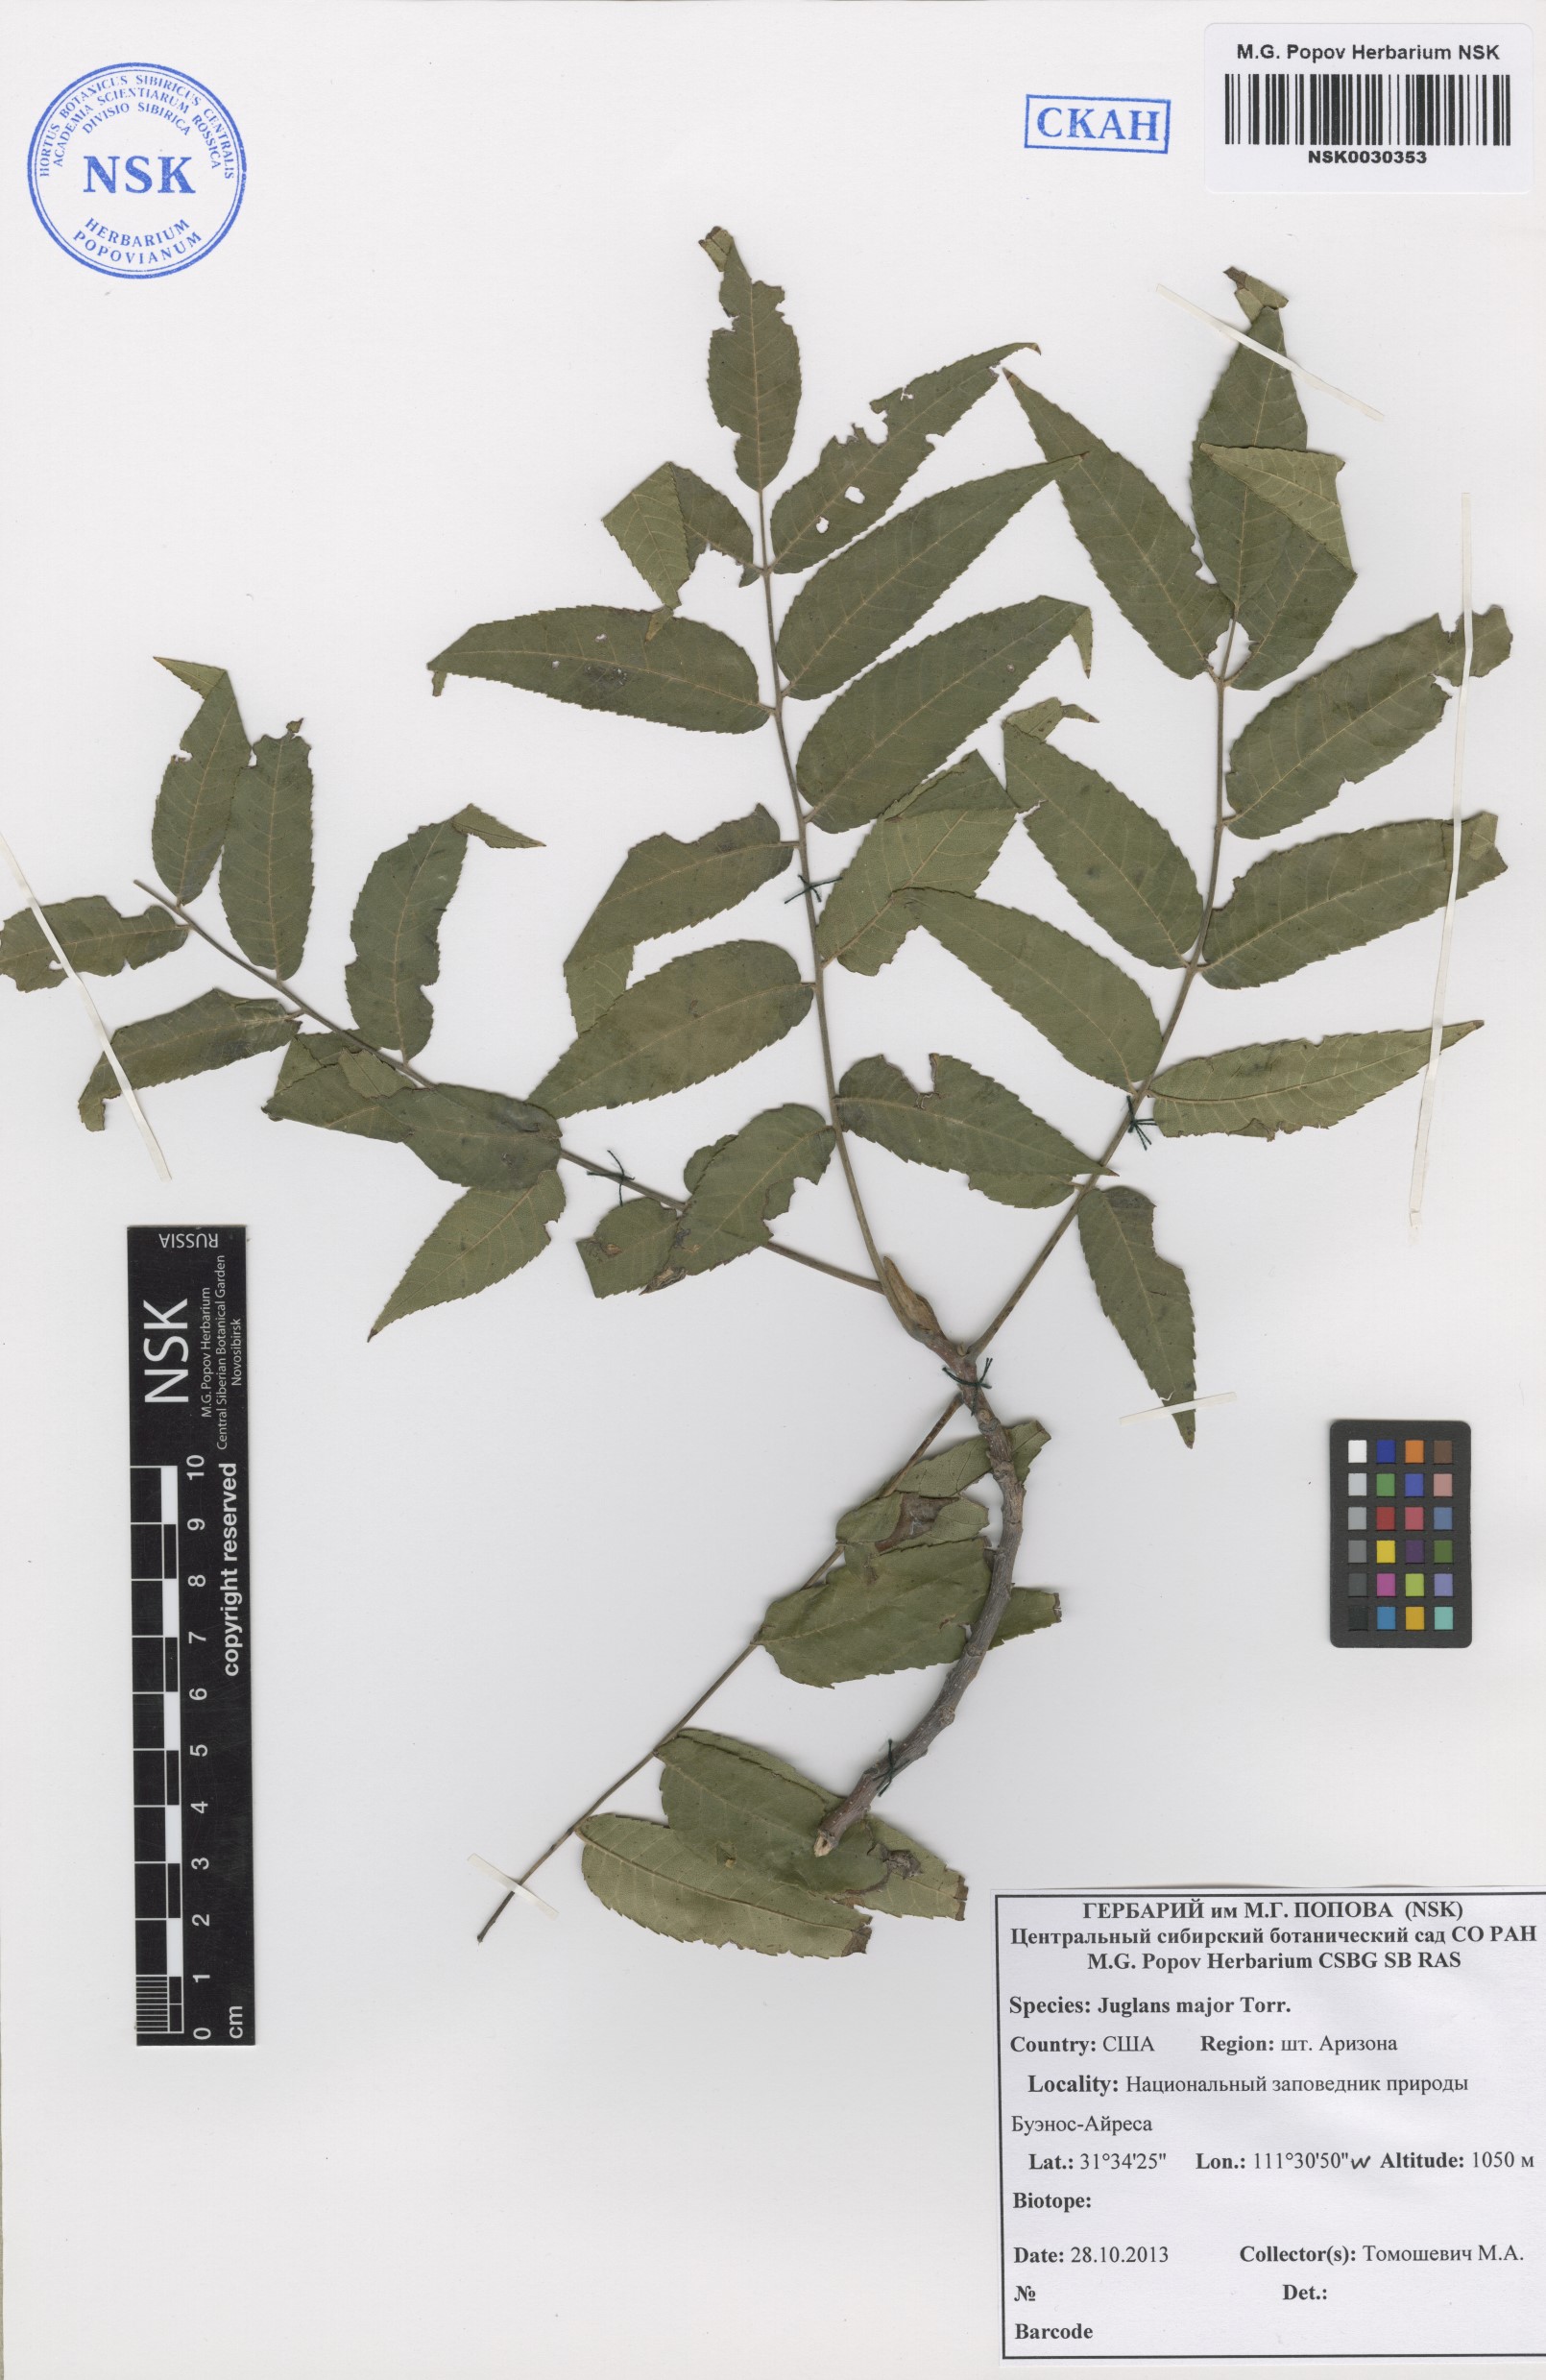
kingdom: Plantae
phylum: Tracheophyta
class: Magnoliopsida
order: Fagales
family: Juglandaceae
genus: Juglans
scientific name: Juglans major
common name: Arizona walnut
